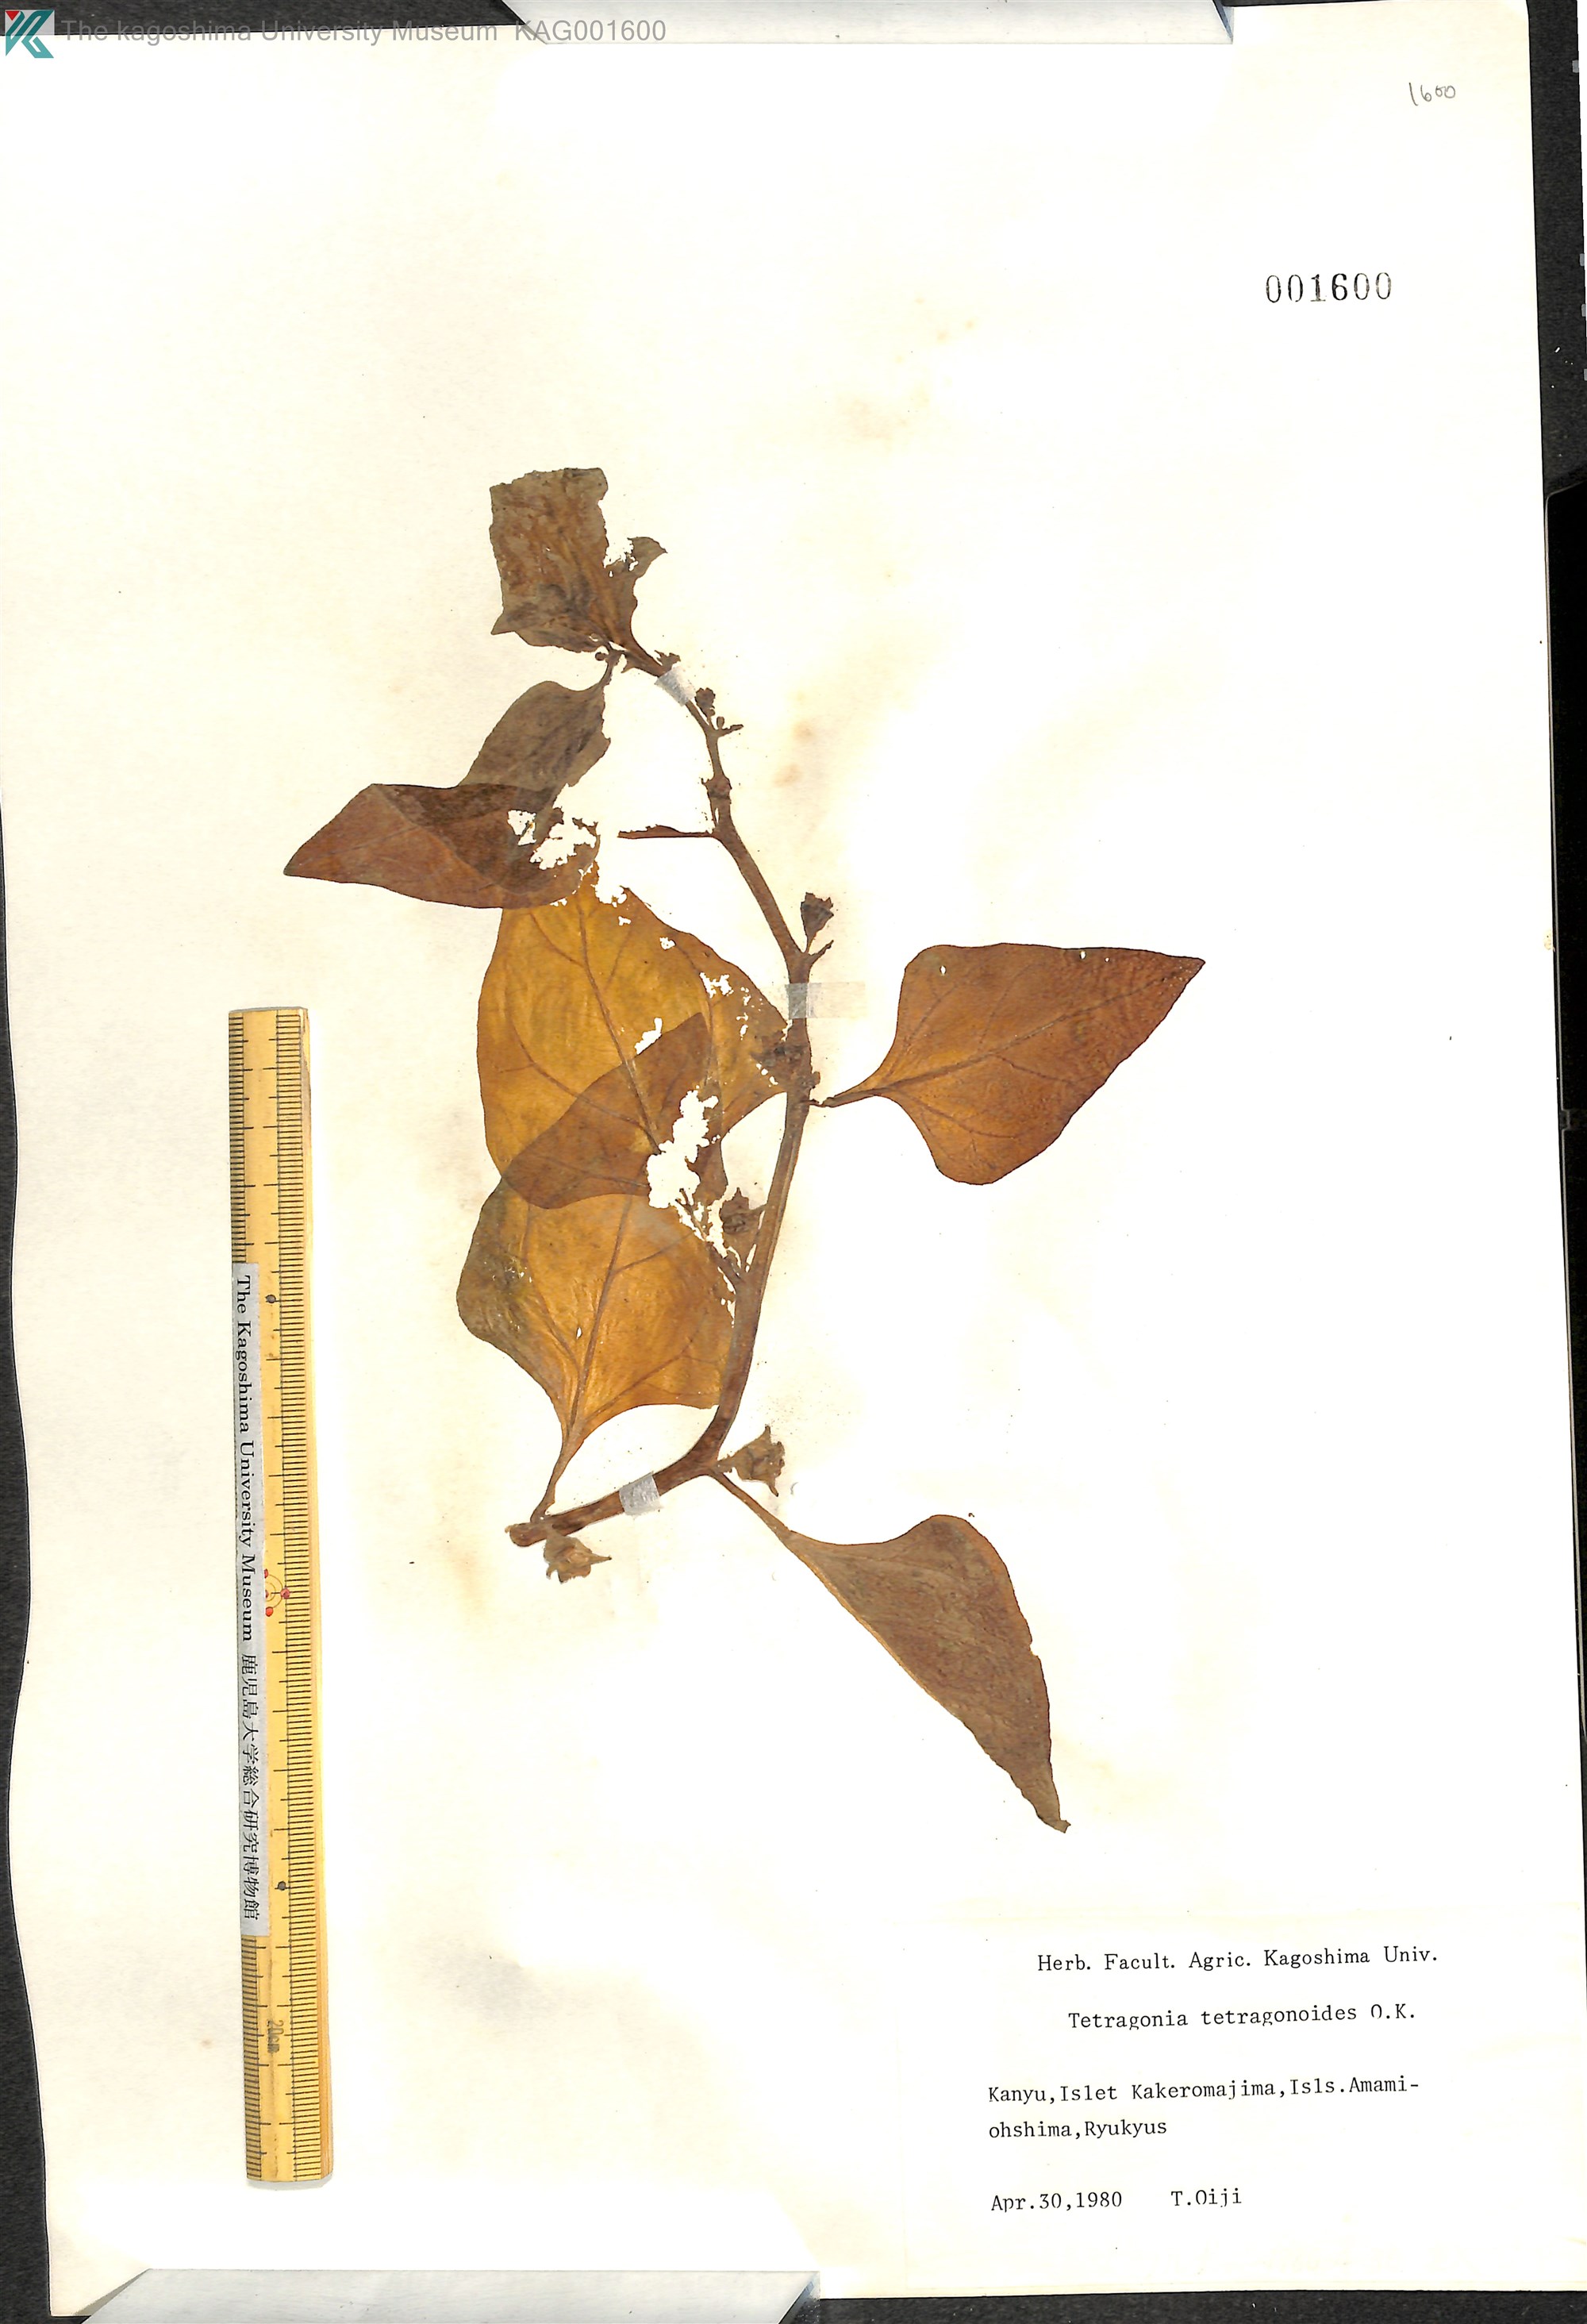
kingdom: Plantae
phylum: Tracheophyta
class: Magnoliopsida
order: Caryophyllales
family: Aizoaceae
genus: Tetragonia
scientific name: Tetragonia tetragonoides
